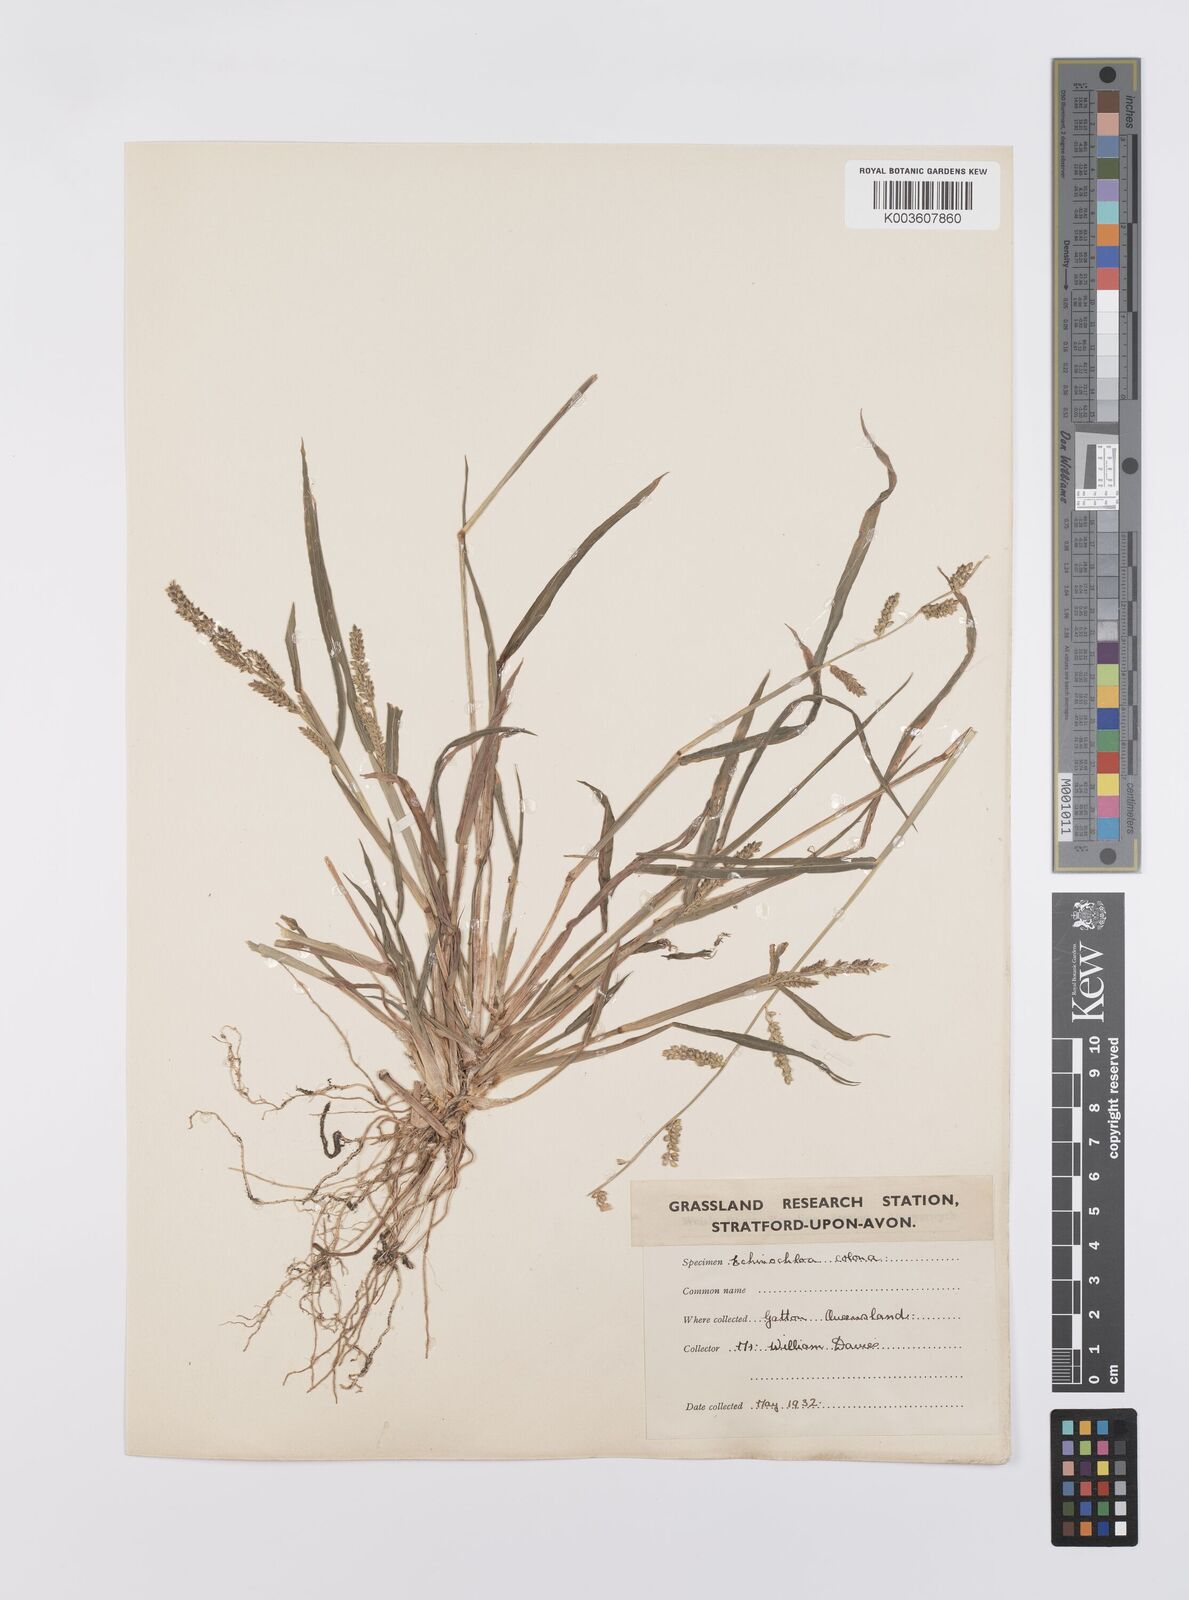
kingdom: Plantae
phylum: Tracheophyta
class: Liliopsida
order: Poales
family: Poaceae
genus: Echinochloa
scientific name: Echinochloa colonum
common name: Jungle rice
